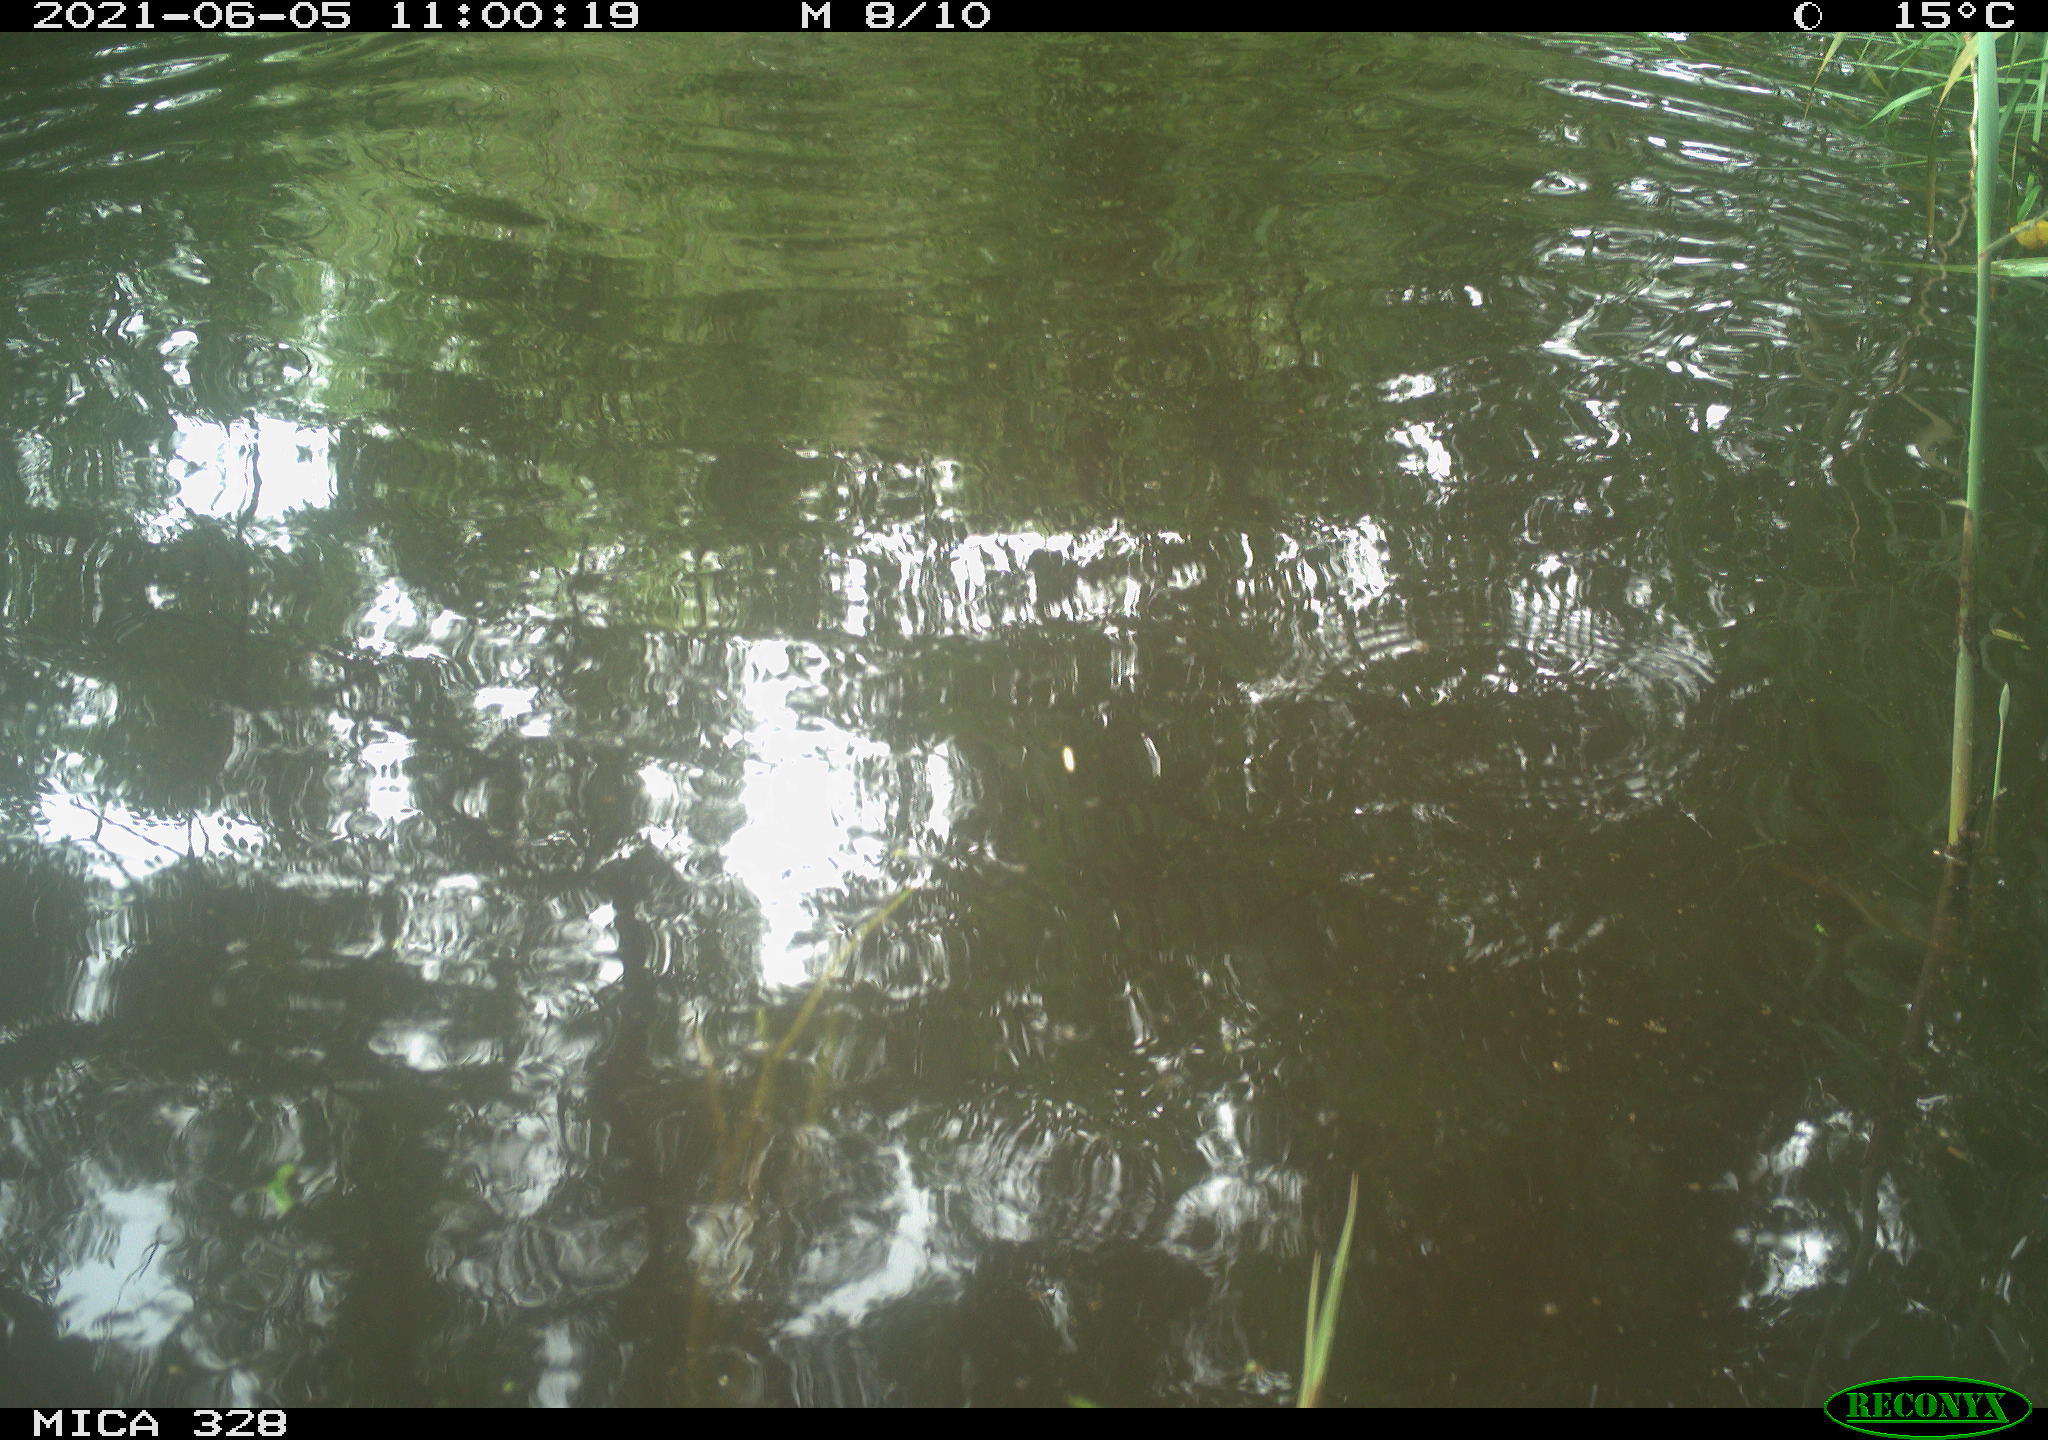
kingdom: Animalia
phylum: Chordata
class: Mammalia
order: Rodentia
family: Cricetidae
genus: Ondatra
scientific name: Ondatra zibethicus
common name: Muskrat
